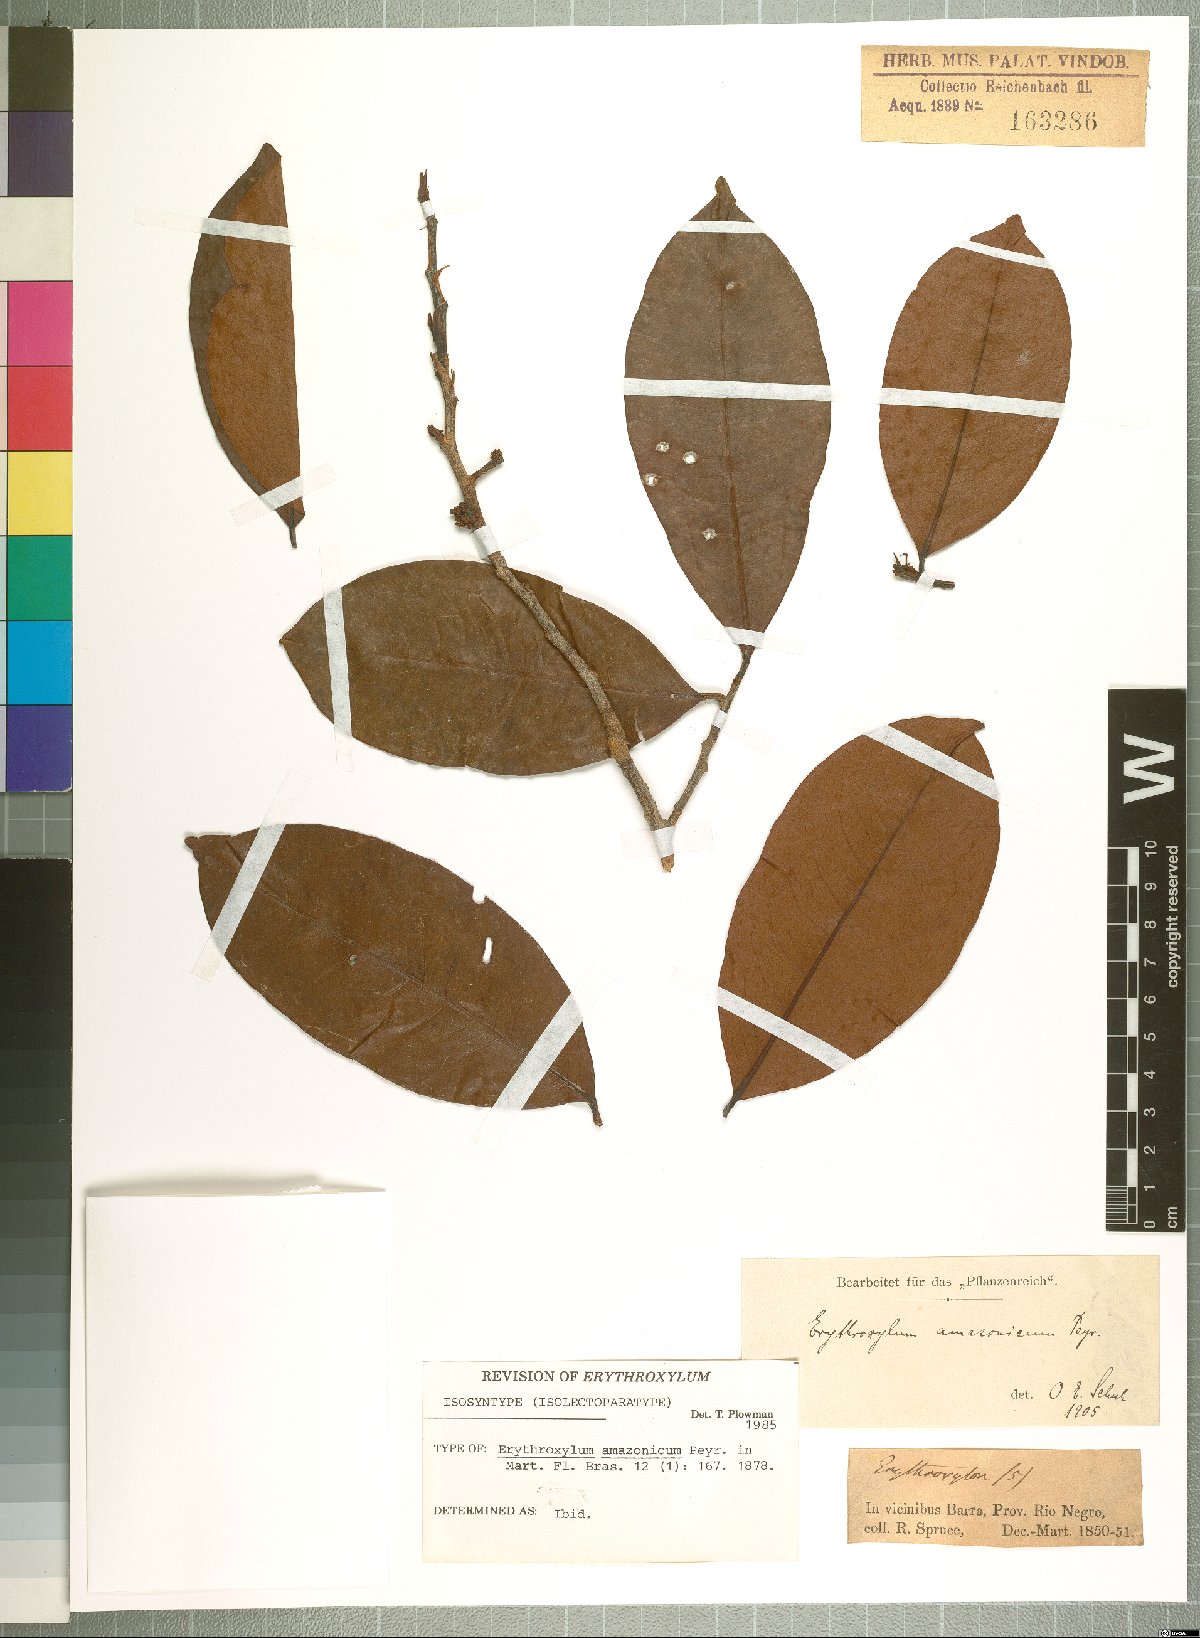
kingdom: Plantae
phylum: Tracheophyta
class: Magnoliopsida
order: Malpighiales
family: Erythroxylaceae
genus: Erythroxylum
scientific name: Erythroxylum amazonicum
